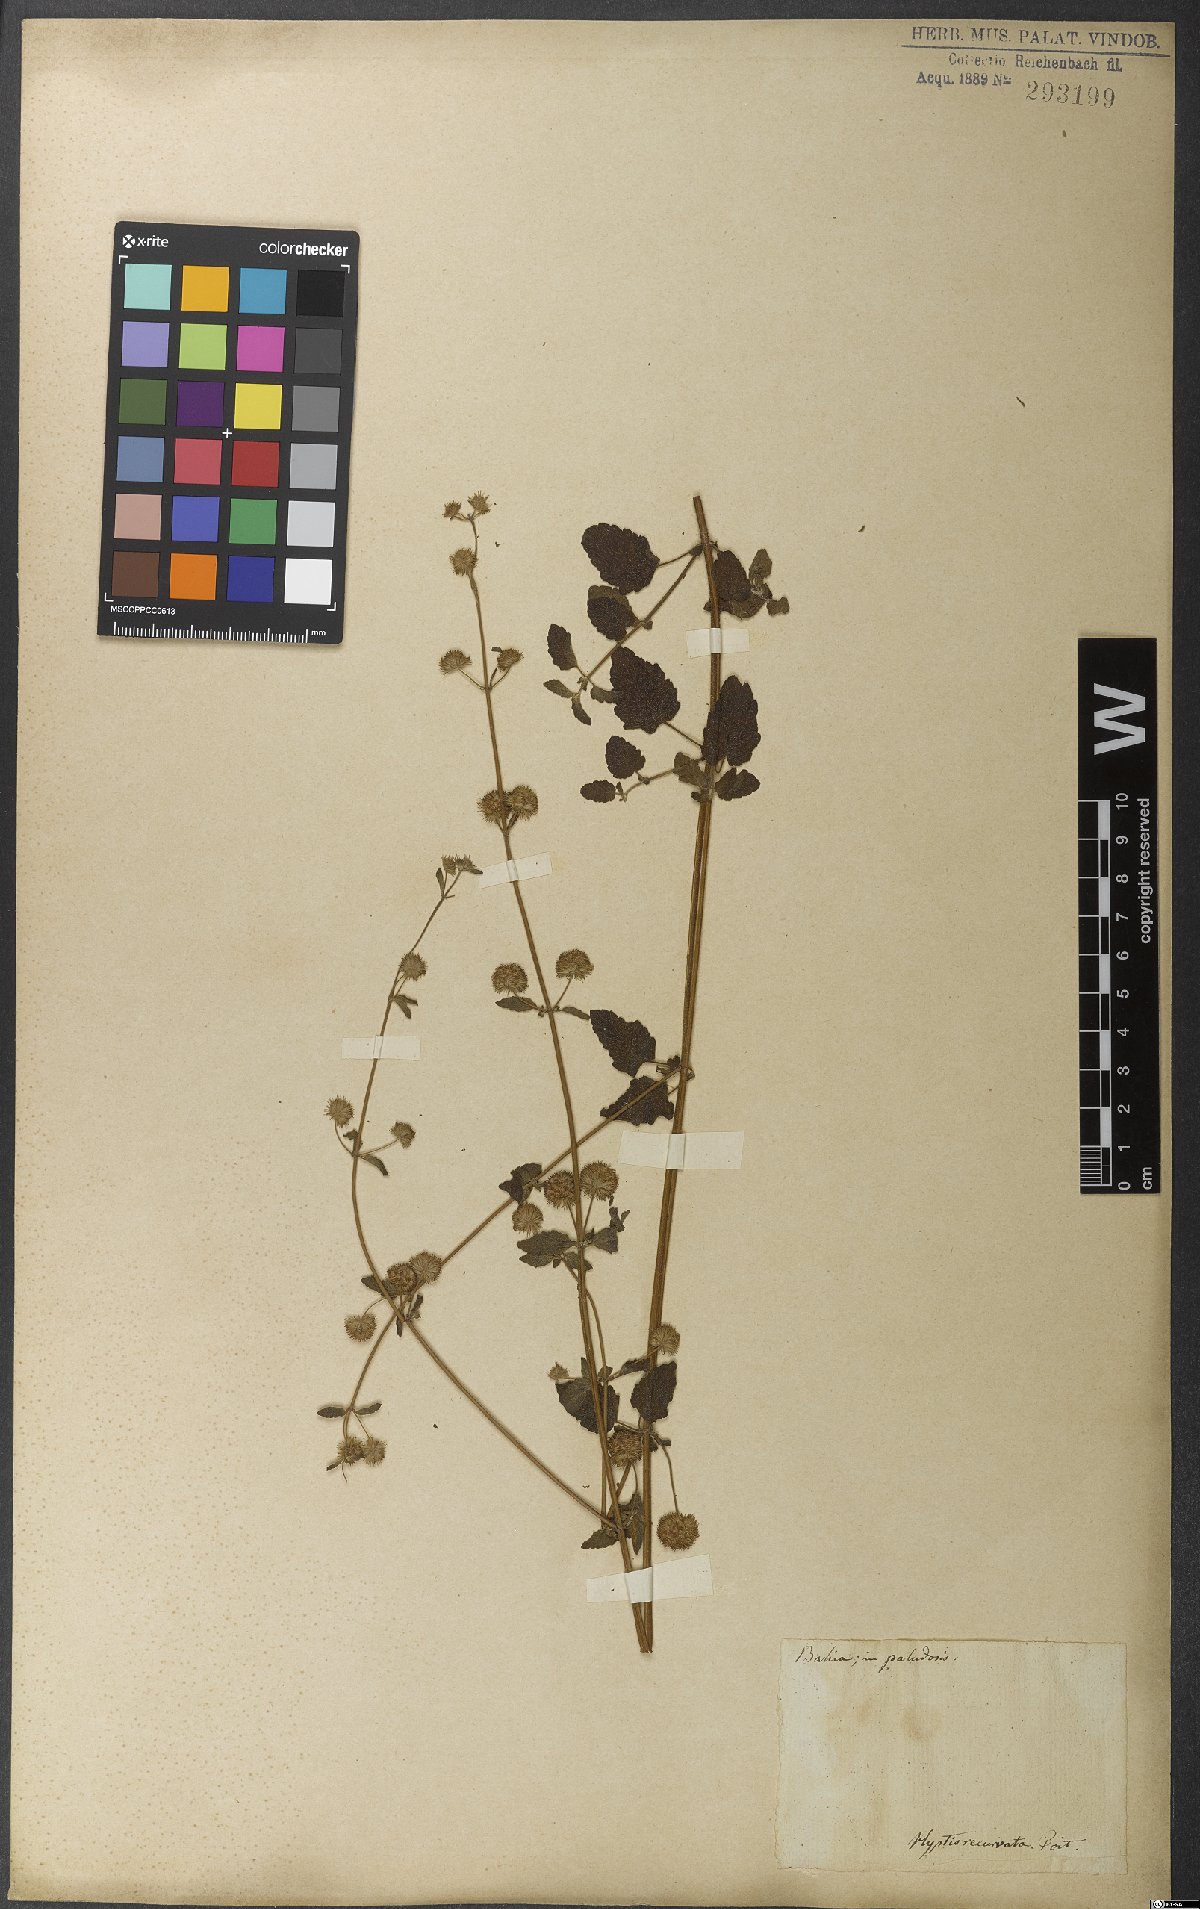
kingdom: Plantae
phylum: Tracheophyta
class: Magnoliopsida
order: Lamiales
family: Lamiaceae
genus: Hyptis
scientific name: Hyptis recurvata
